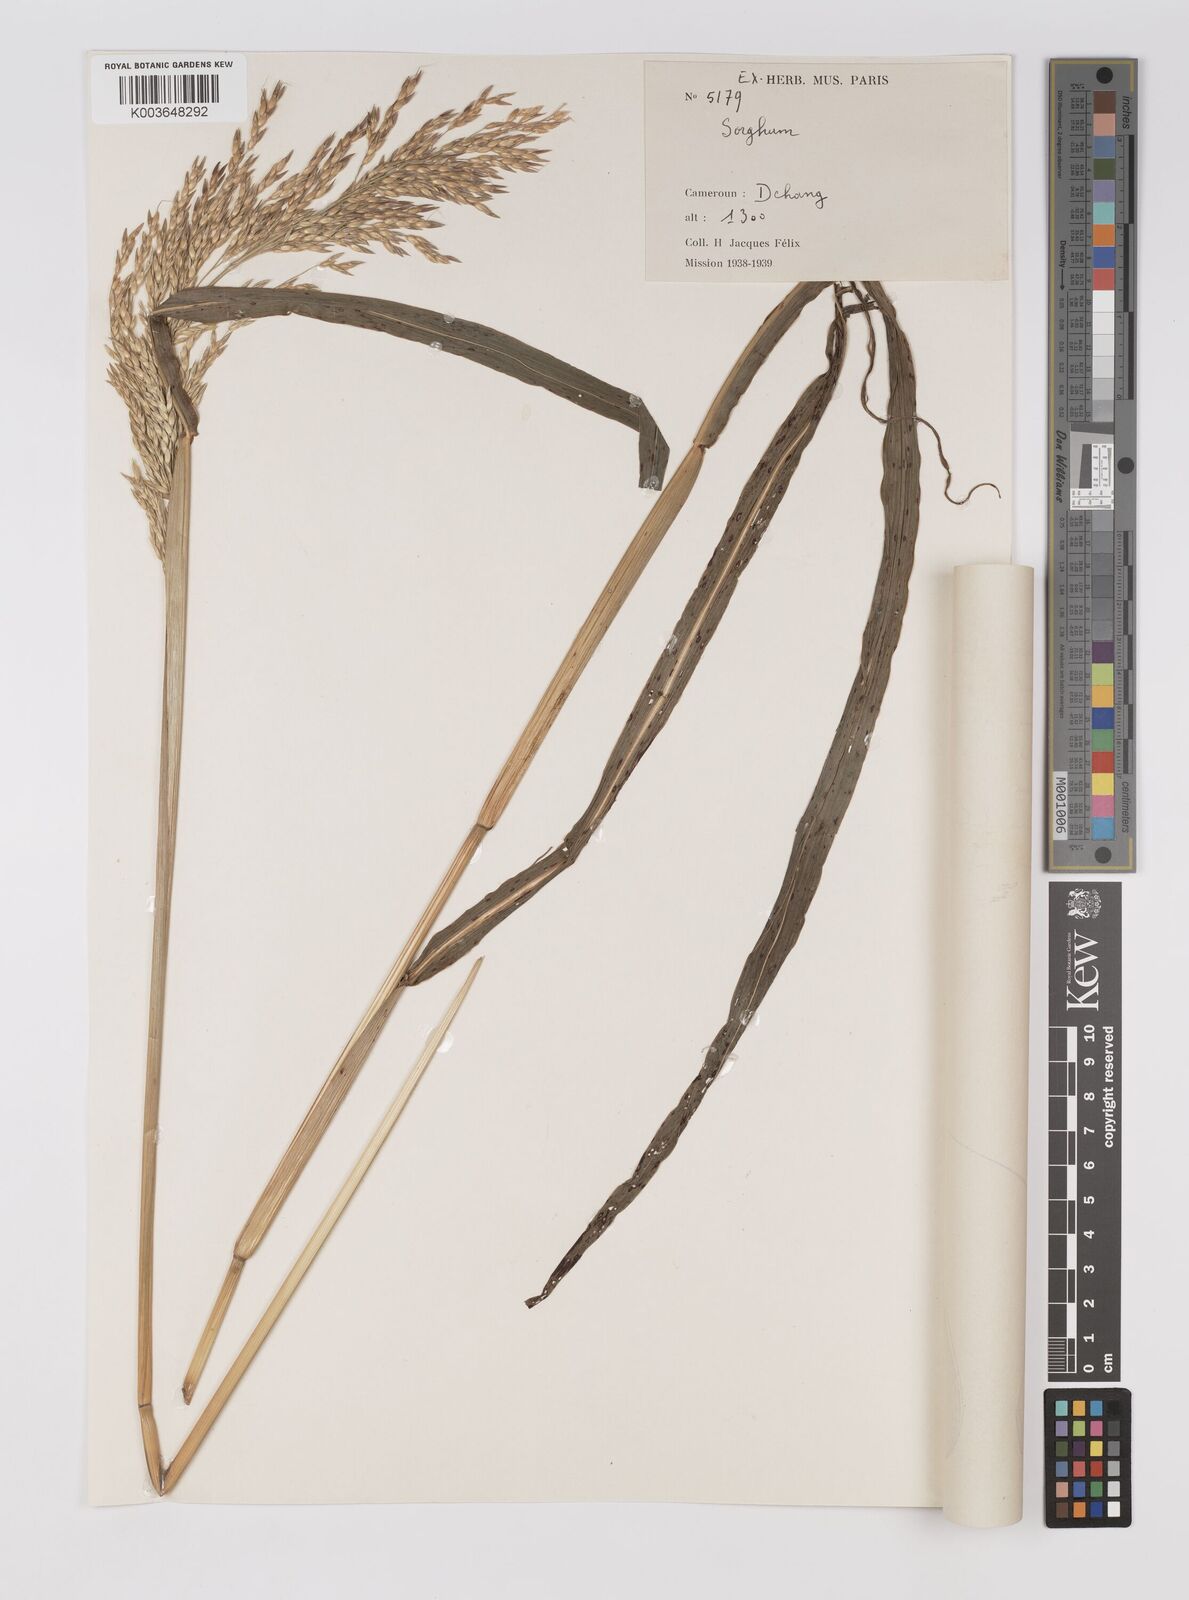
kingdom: Plantae
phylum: Tracheophyta
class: Liliopsida
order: Poales
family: Poaceae
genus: Sorghum
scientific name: Sorghum arundinaceum
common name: Sorghum
